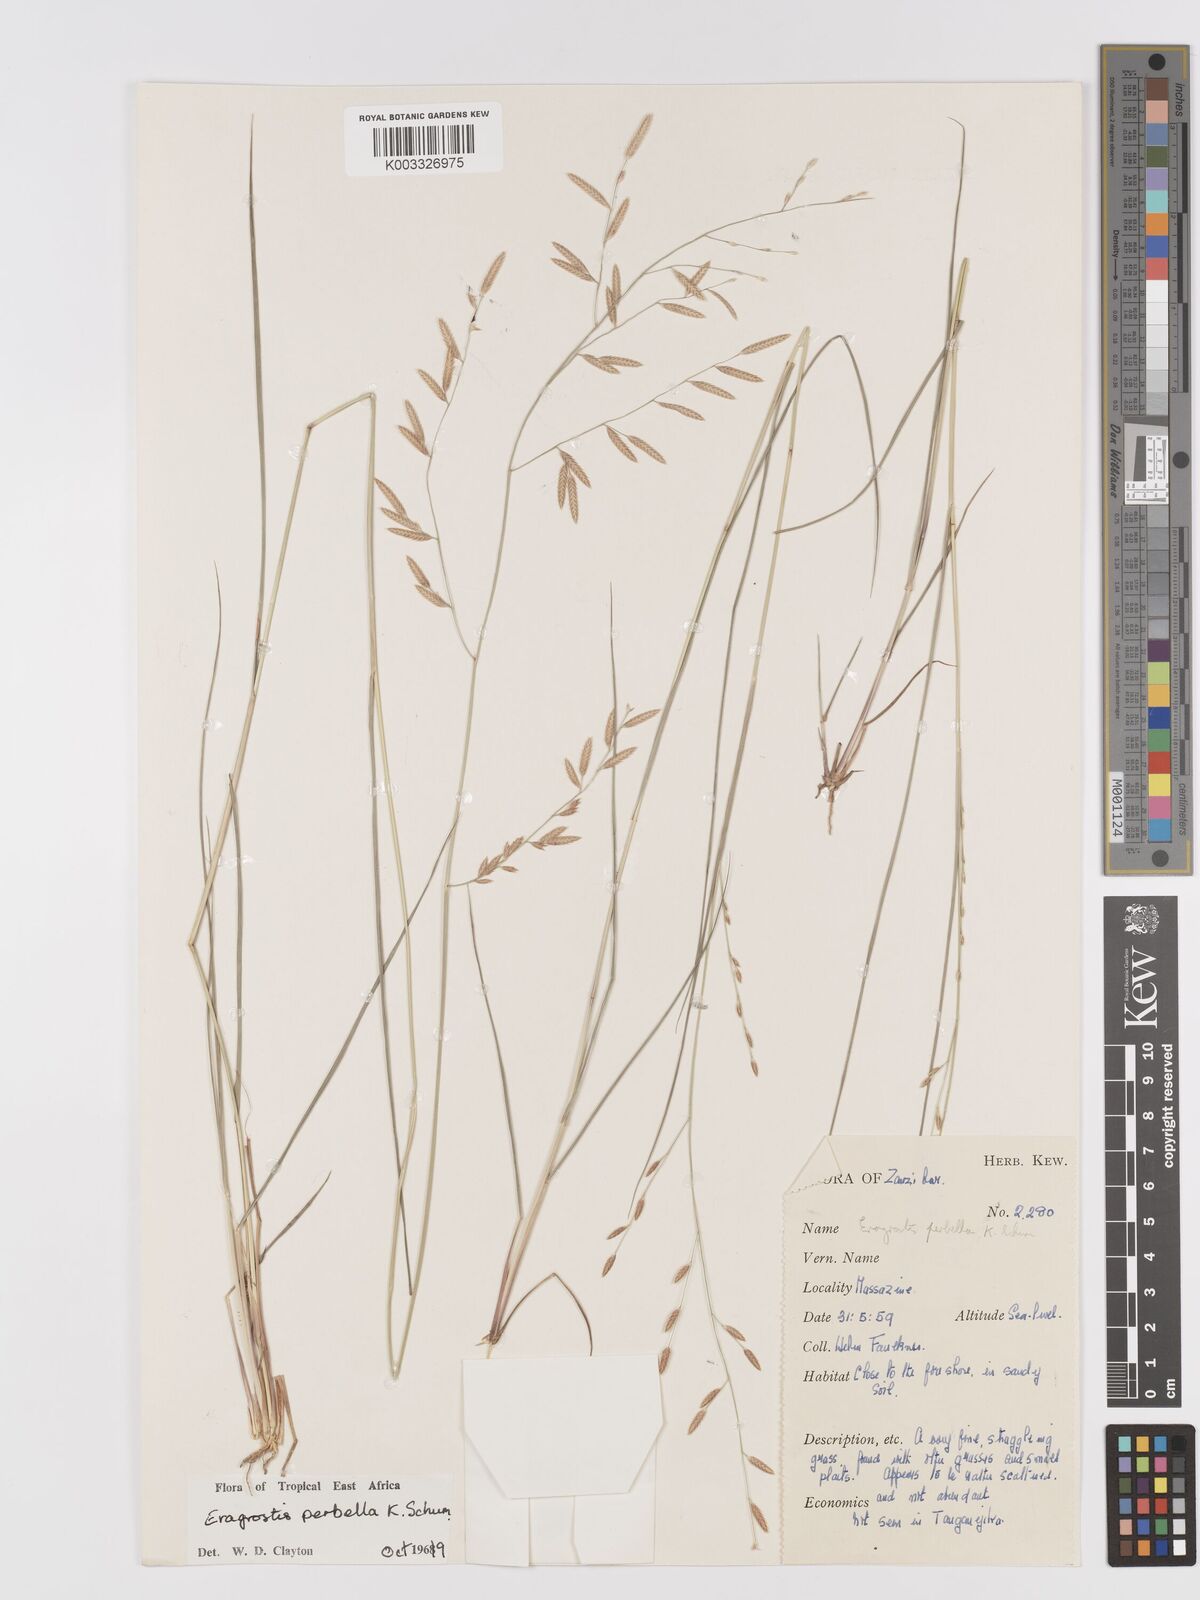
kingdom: Plantae
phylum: Tracheophyta
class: Liliopsida
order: Poales
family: Poaceae
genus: Eragrostis
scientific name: Eragrostis perbella
